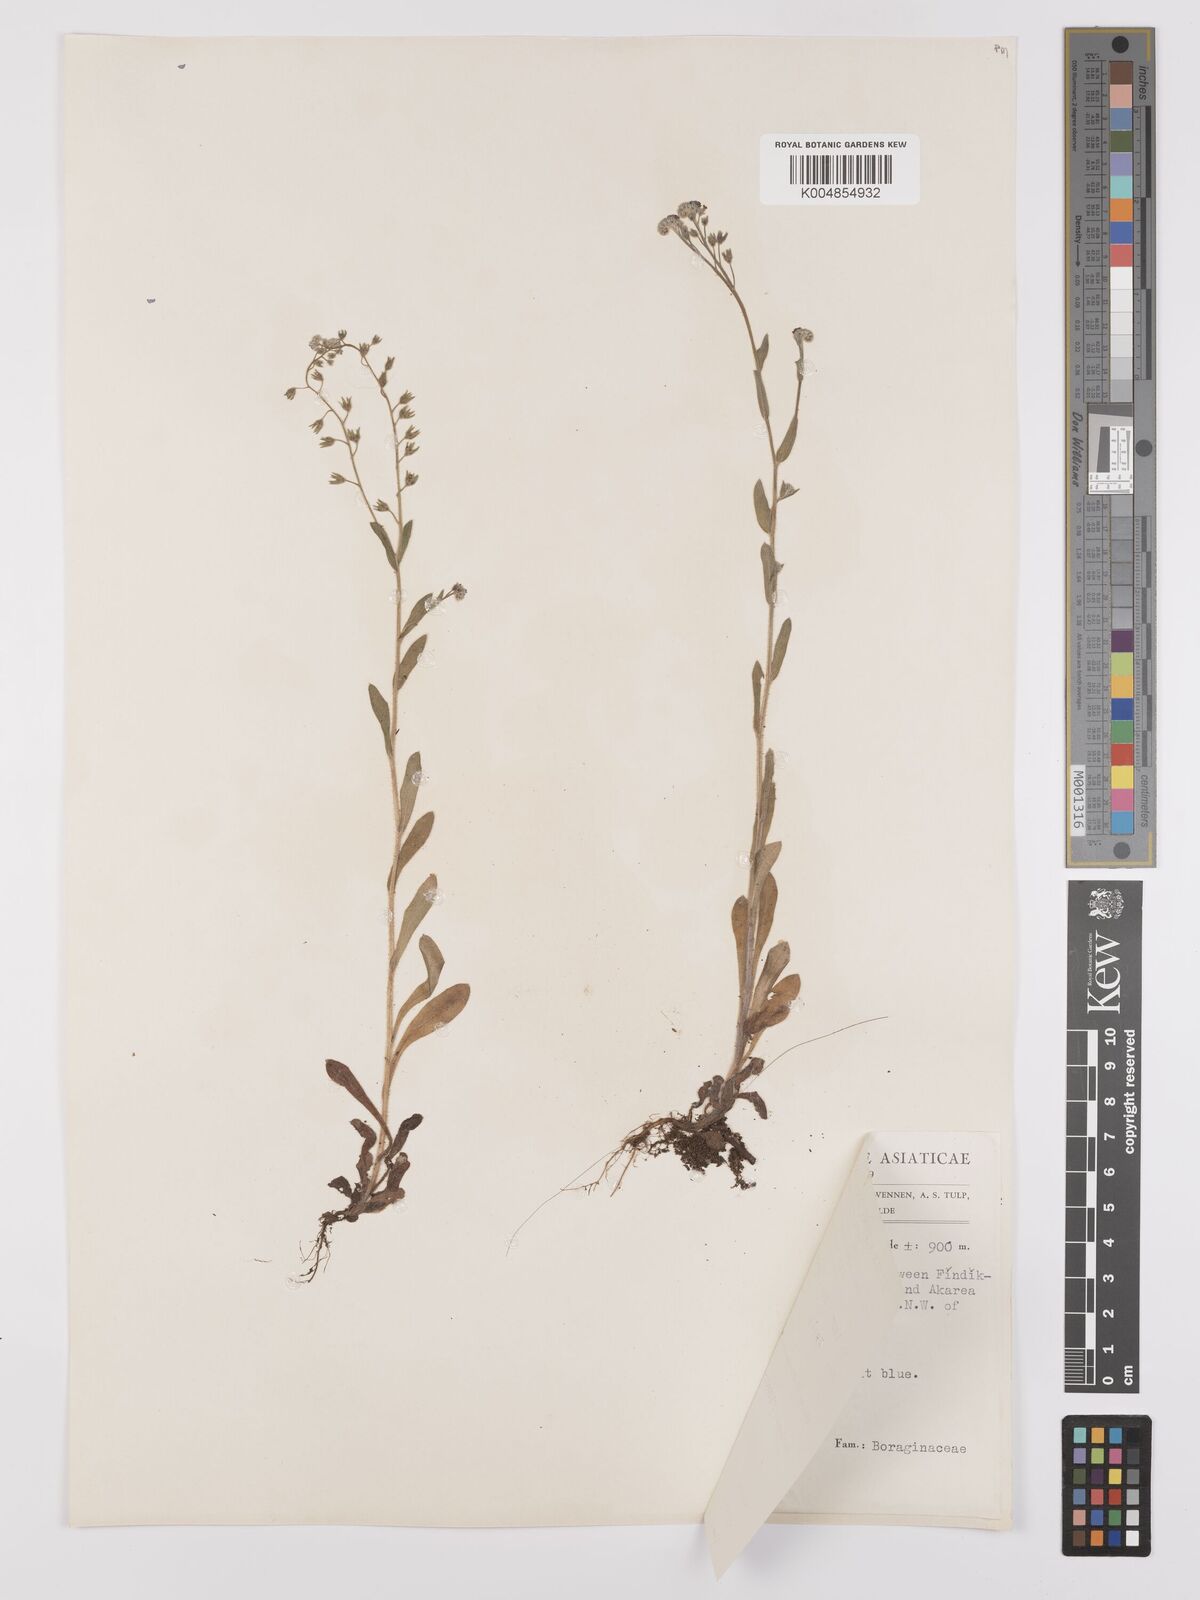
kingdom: Plantae
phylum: Tracheophyta
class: Magnoliopsida
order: Boraginales
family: Boraginaceae
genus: Myosotis
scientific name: Myosotis
